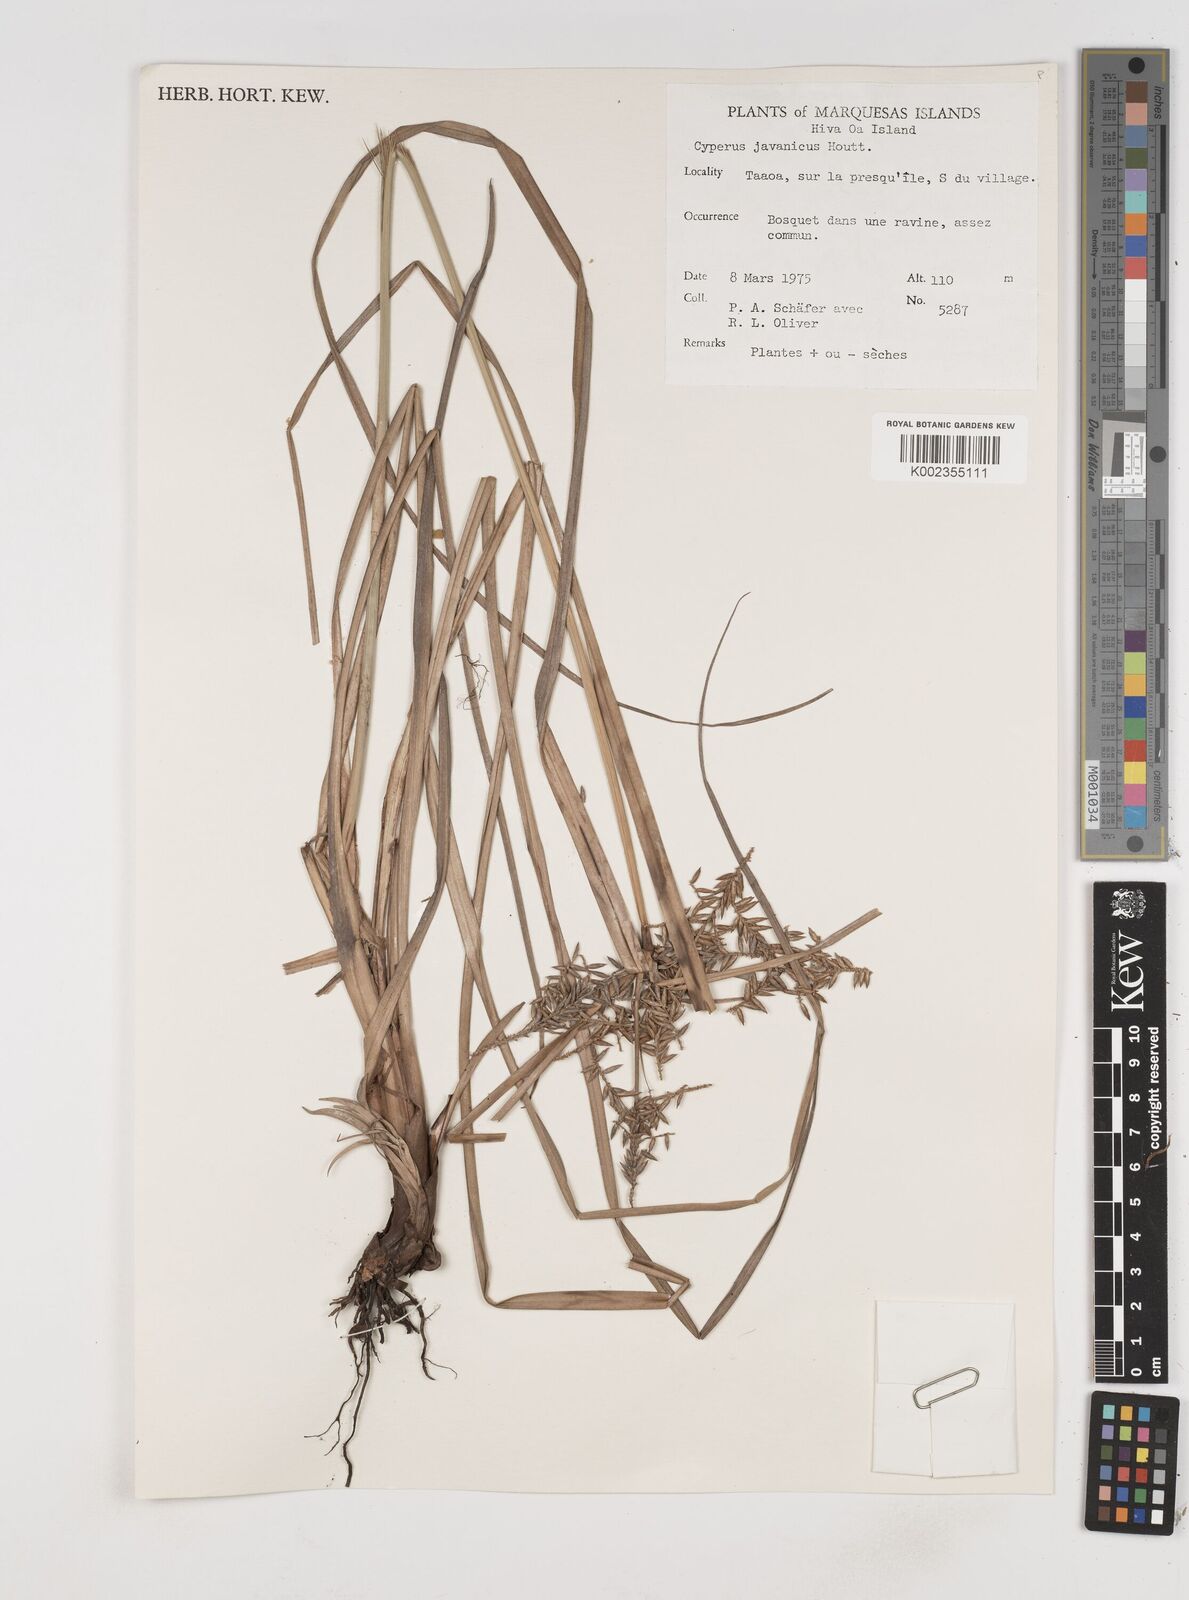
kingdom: Plantae
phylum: Tracheophyta
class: Liliopsida
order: Poales
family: Cyperaceae
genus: Cyperus
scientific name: Cyperus javanicus
